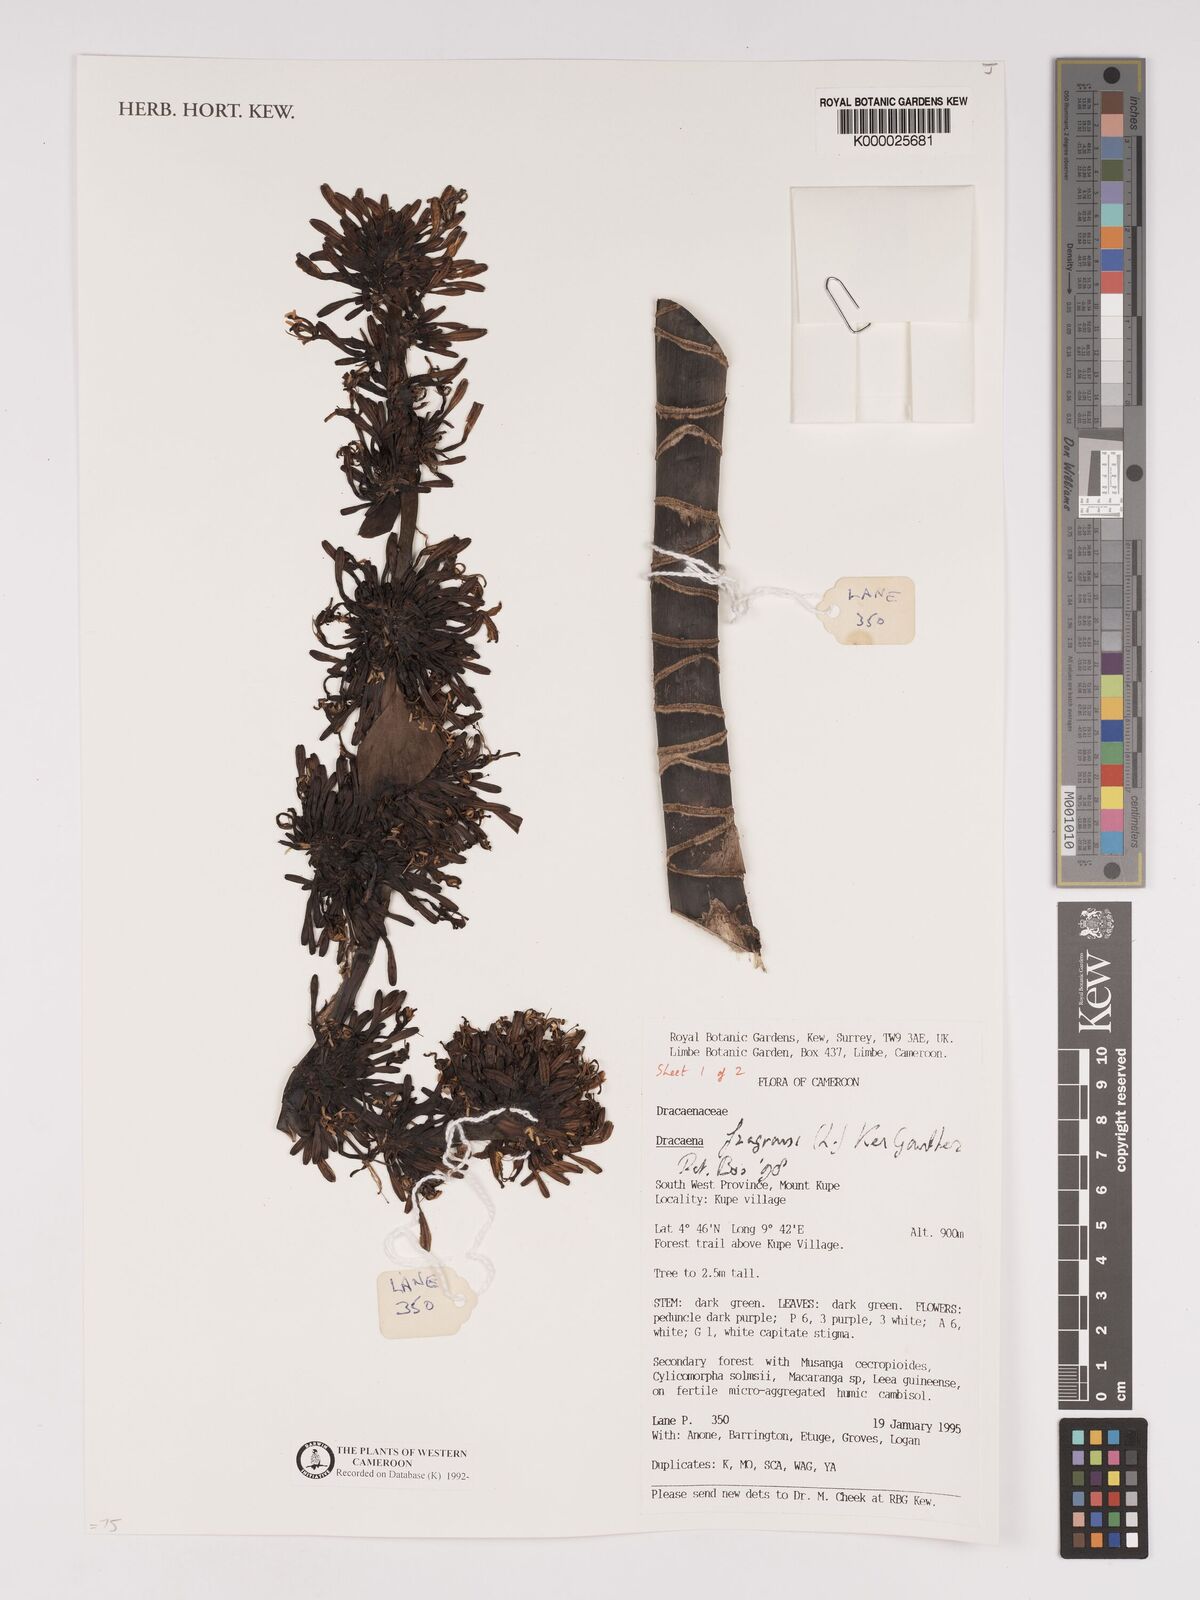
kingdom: Plantae
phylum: Tracheophyta
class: Liliopsida
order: Asparagales
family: Asparagaceae
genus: Dracaena
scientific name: Dracaena fragrans
